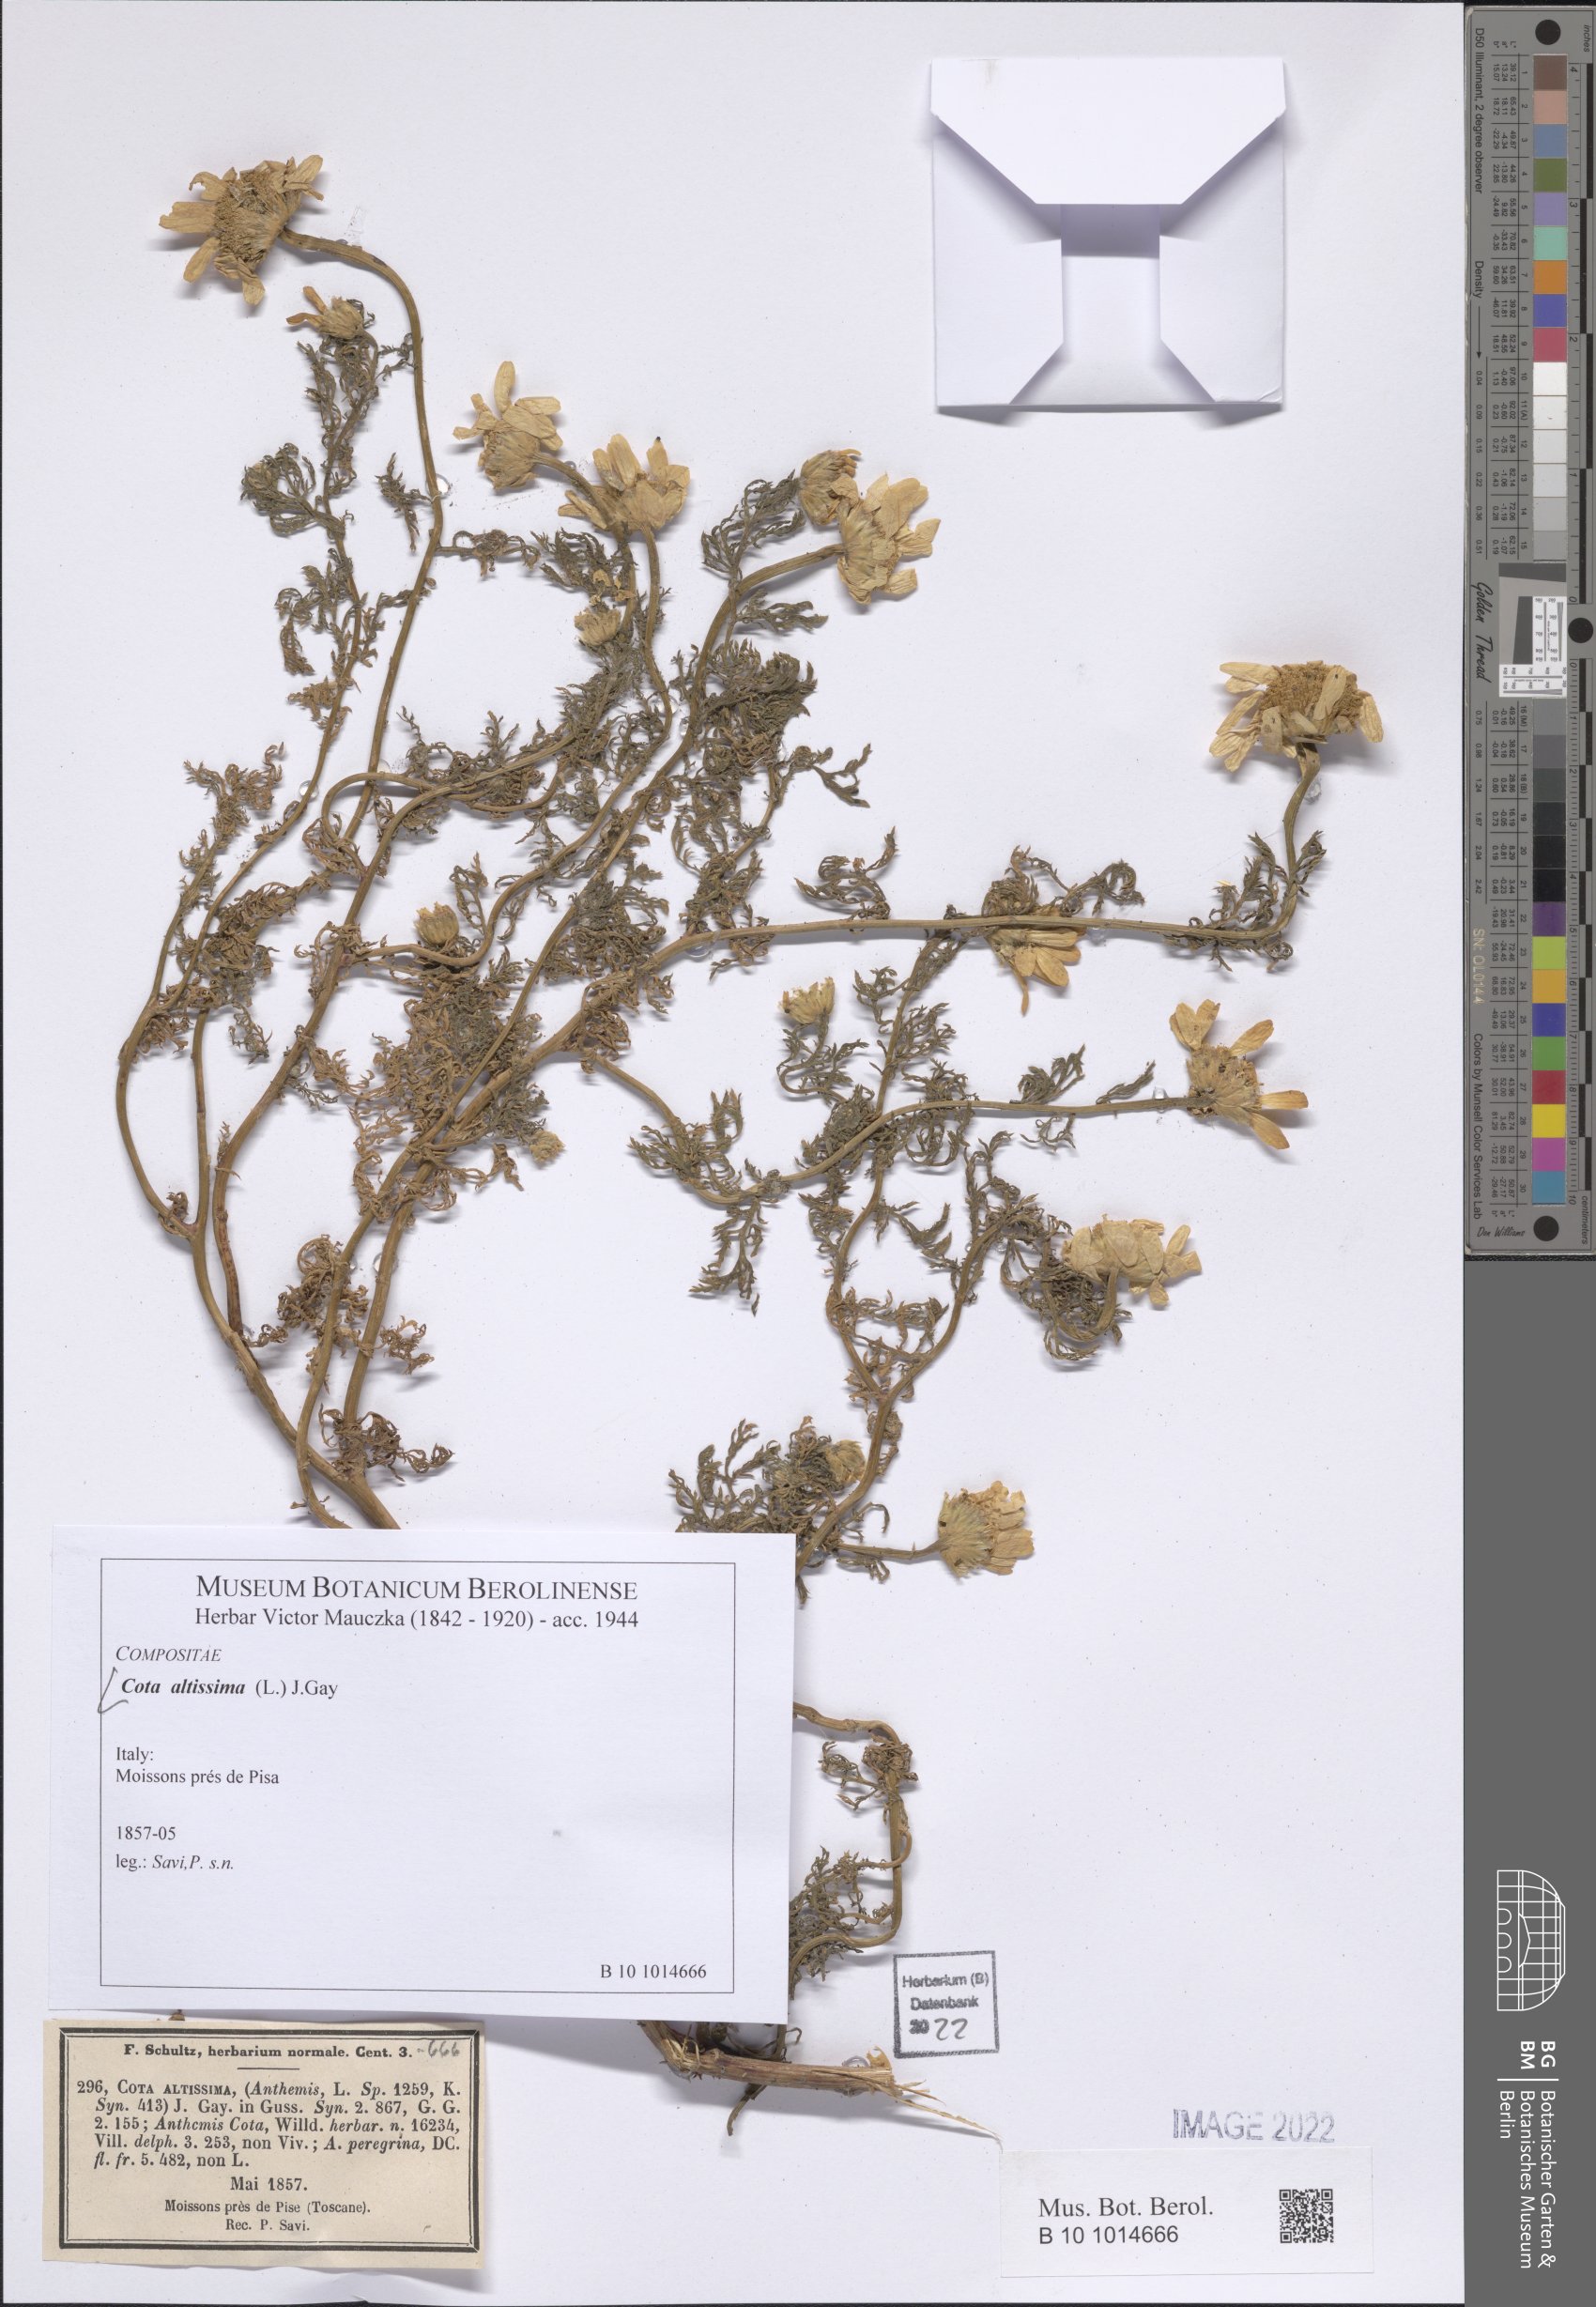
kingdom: Plantae
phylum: Tracheophyta
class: Magnoliopsida
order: Asterales
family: Asteraceae
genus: Cota
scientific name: Cota altissima
